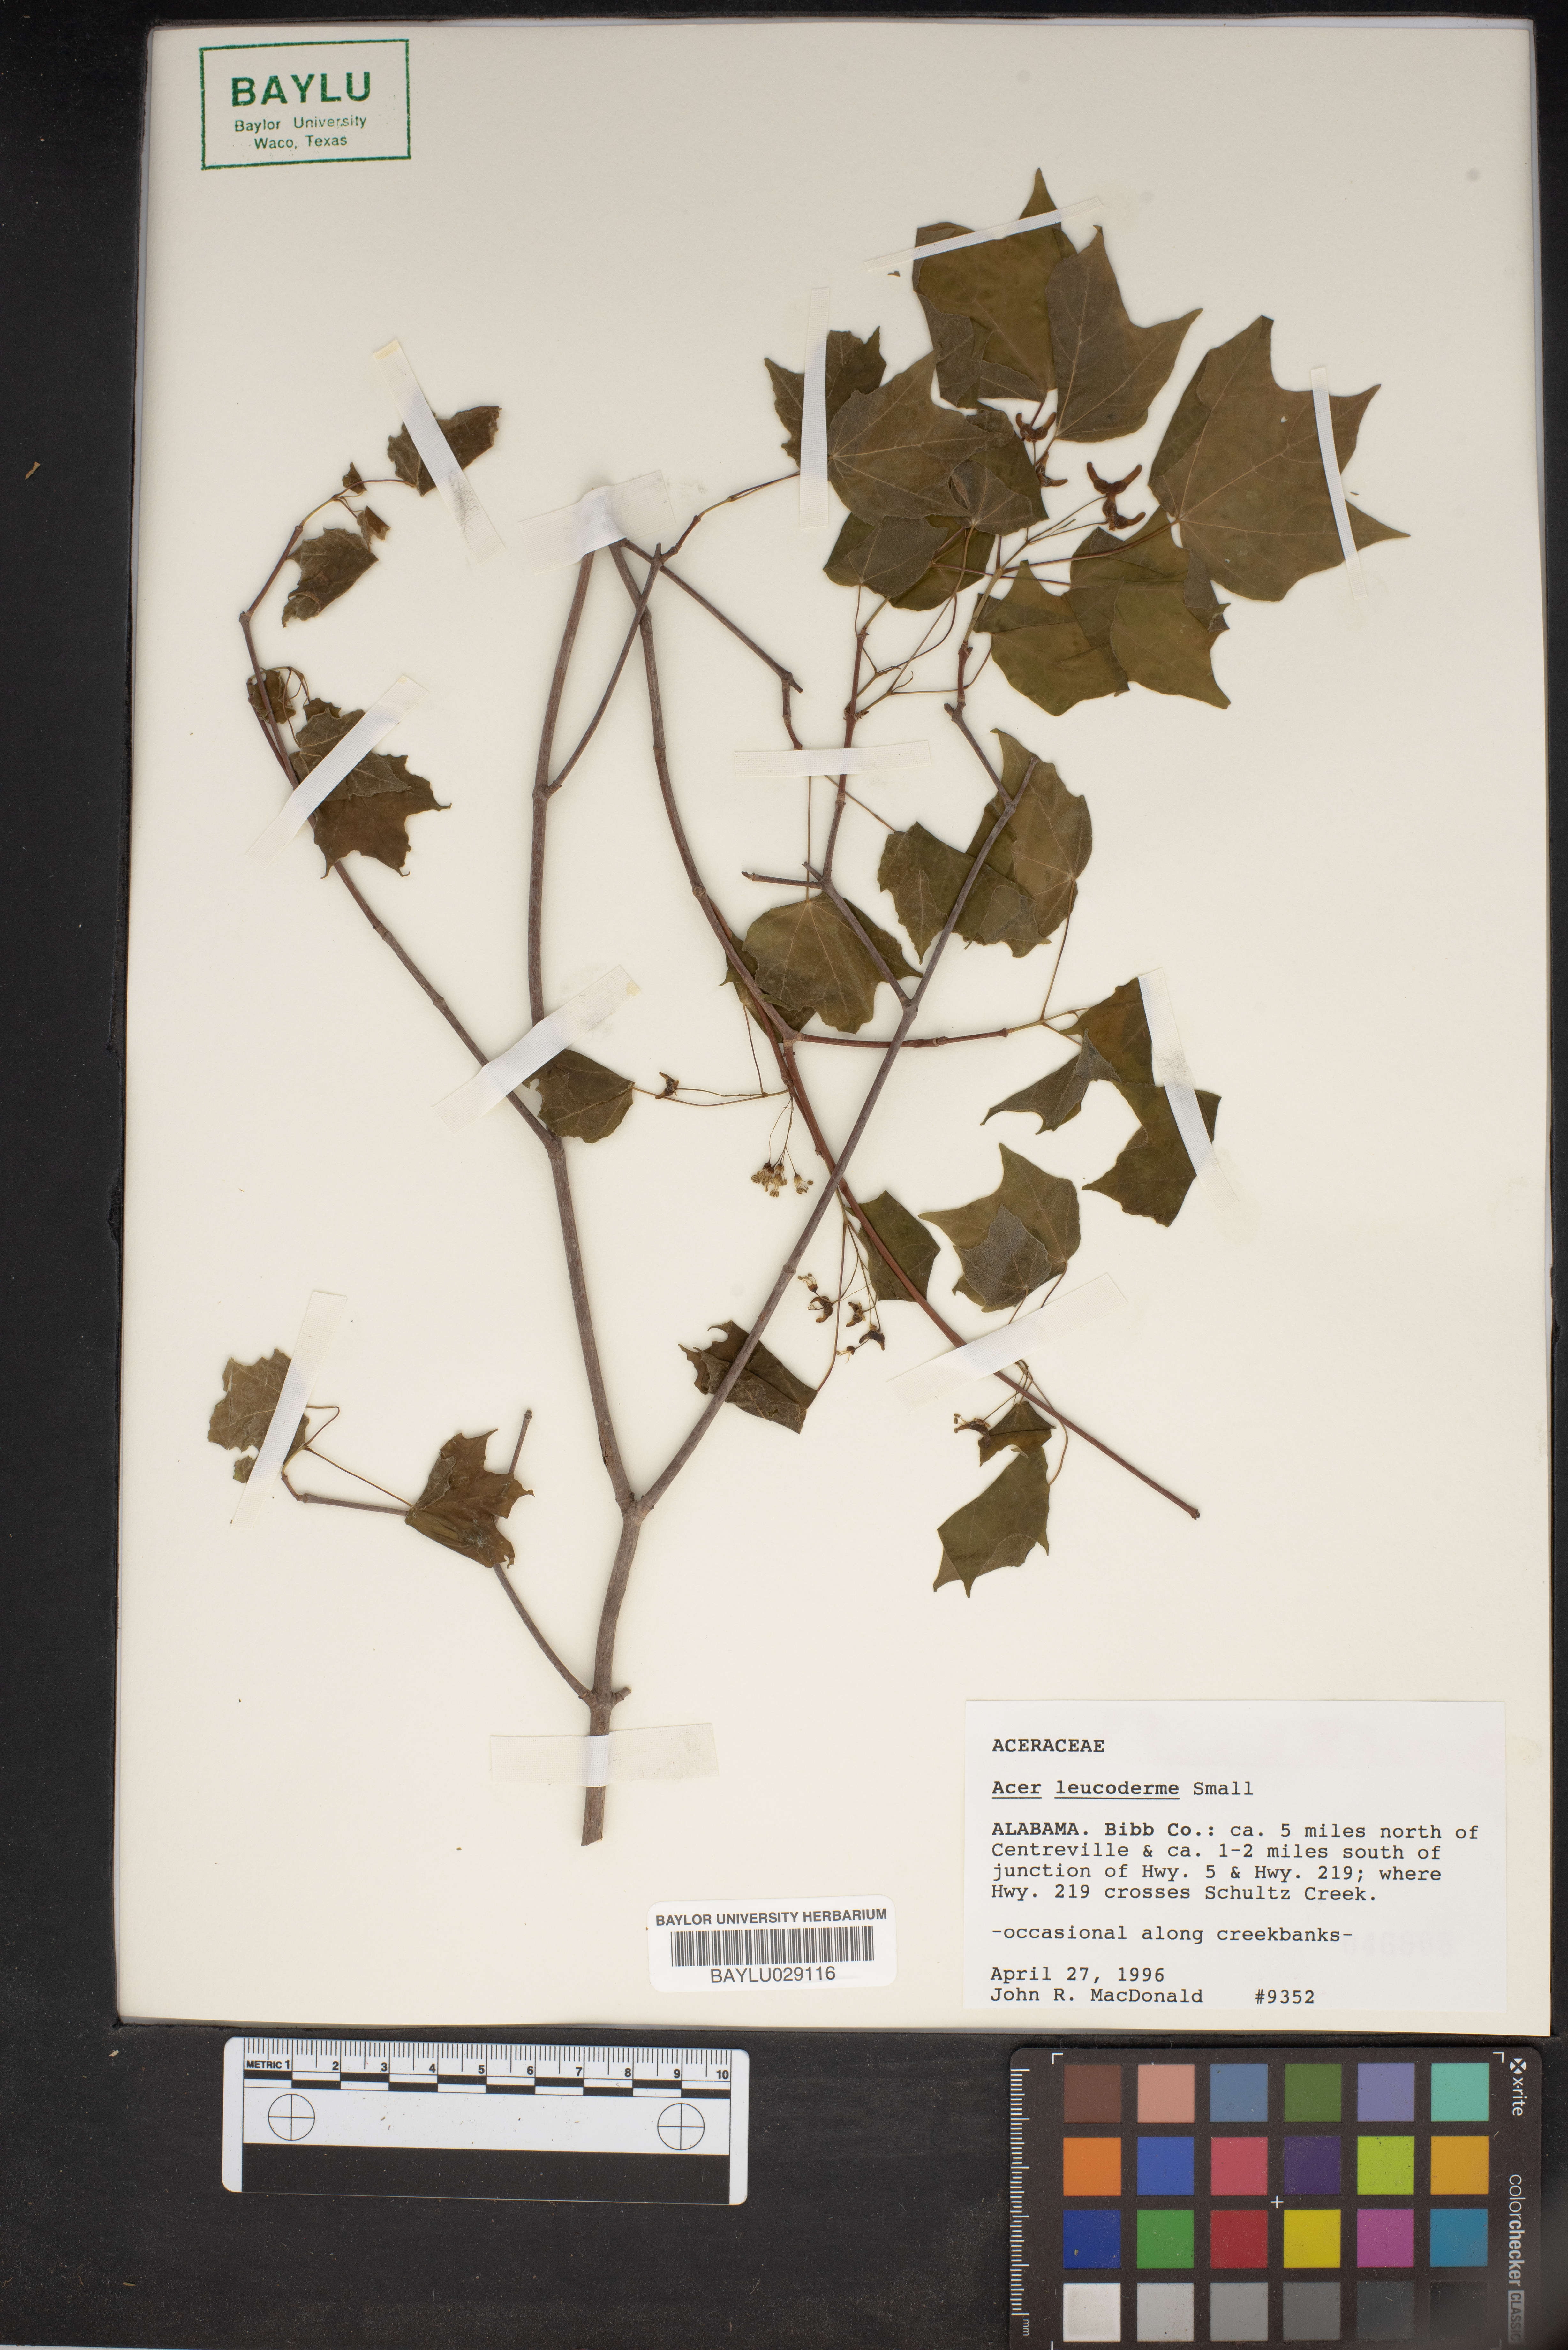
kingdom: Plantae
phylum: Tracheophyta
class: Magnoliopsida
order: Sapindales
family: Sapindaceae
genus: Acer
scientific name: Acer leucoderme
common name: Chalk maple
